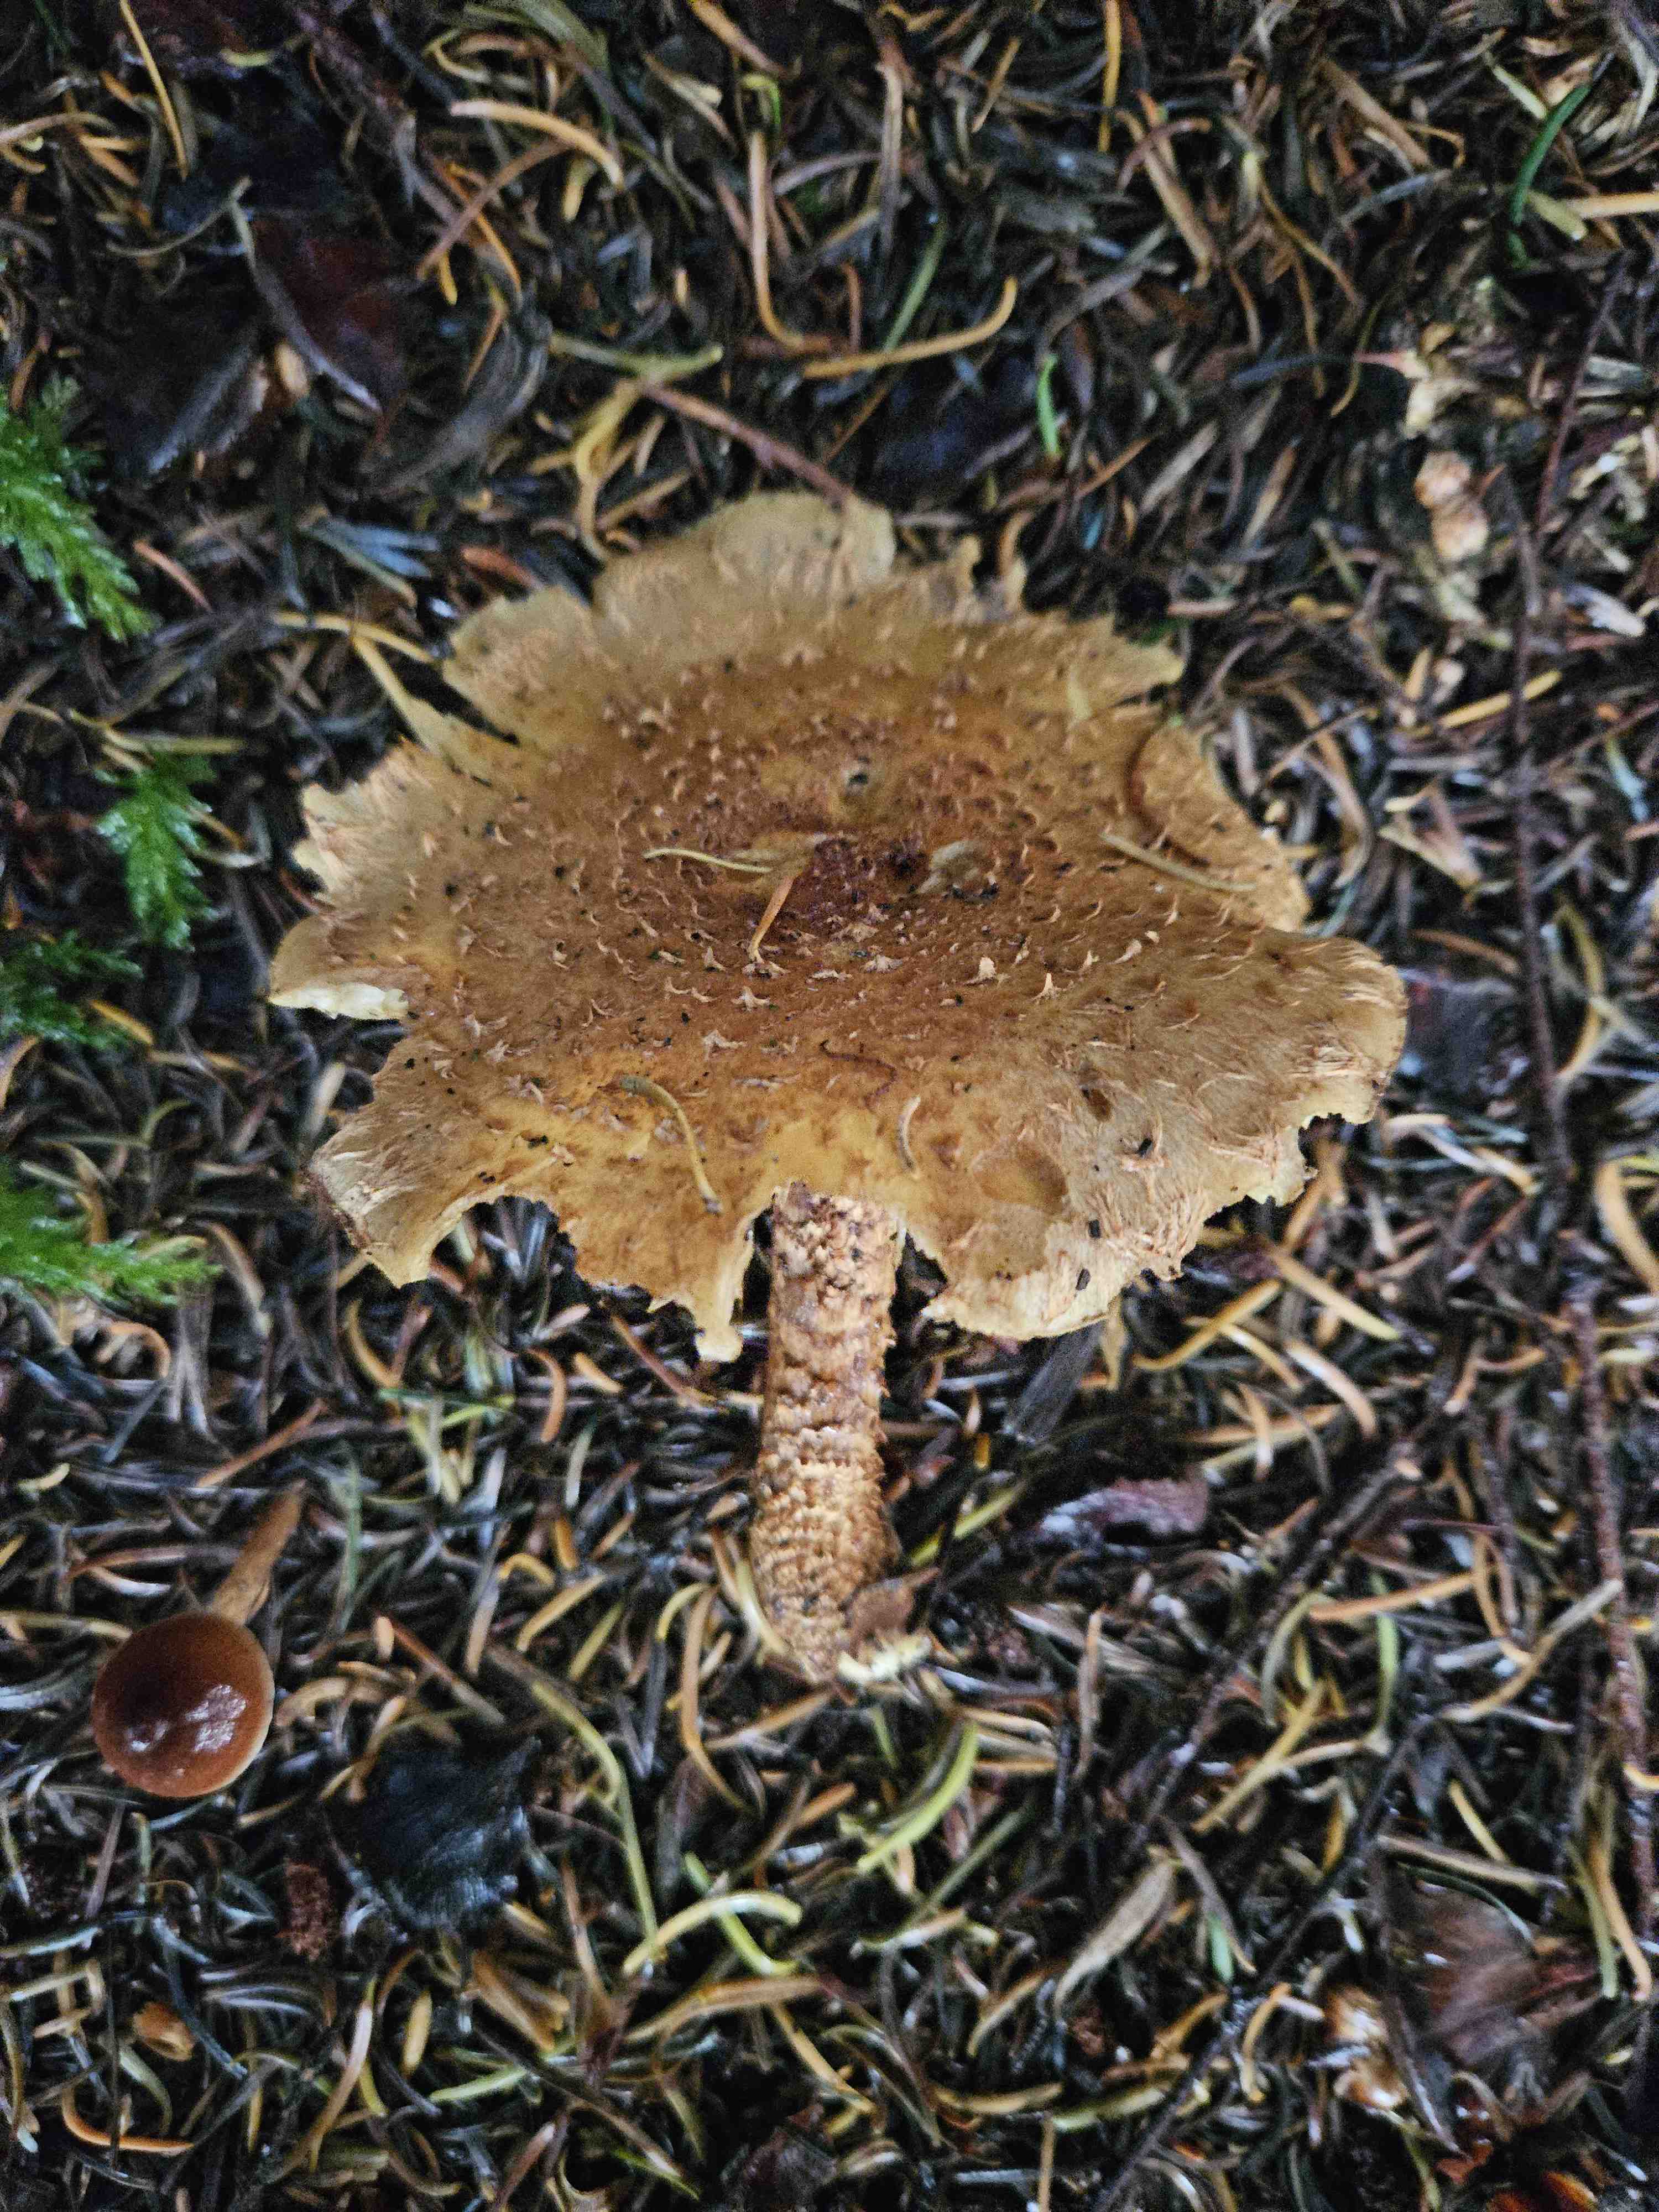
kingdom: Fungi
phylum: Basidiomycota
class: Agaricomycetes
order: Agaricales
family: Strophariaceae
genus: Pholiota
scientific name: Pholiota squarrosa
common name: krumskællet skælhat
